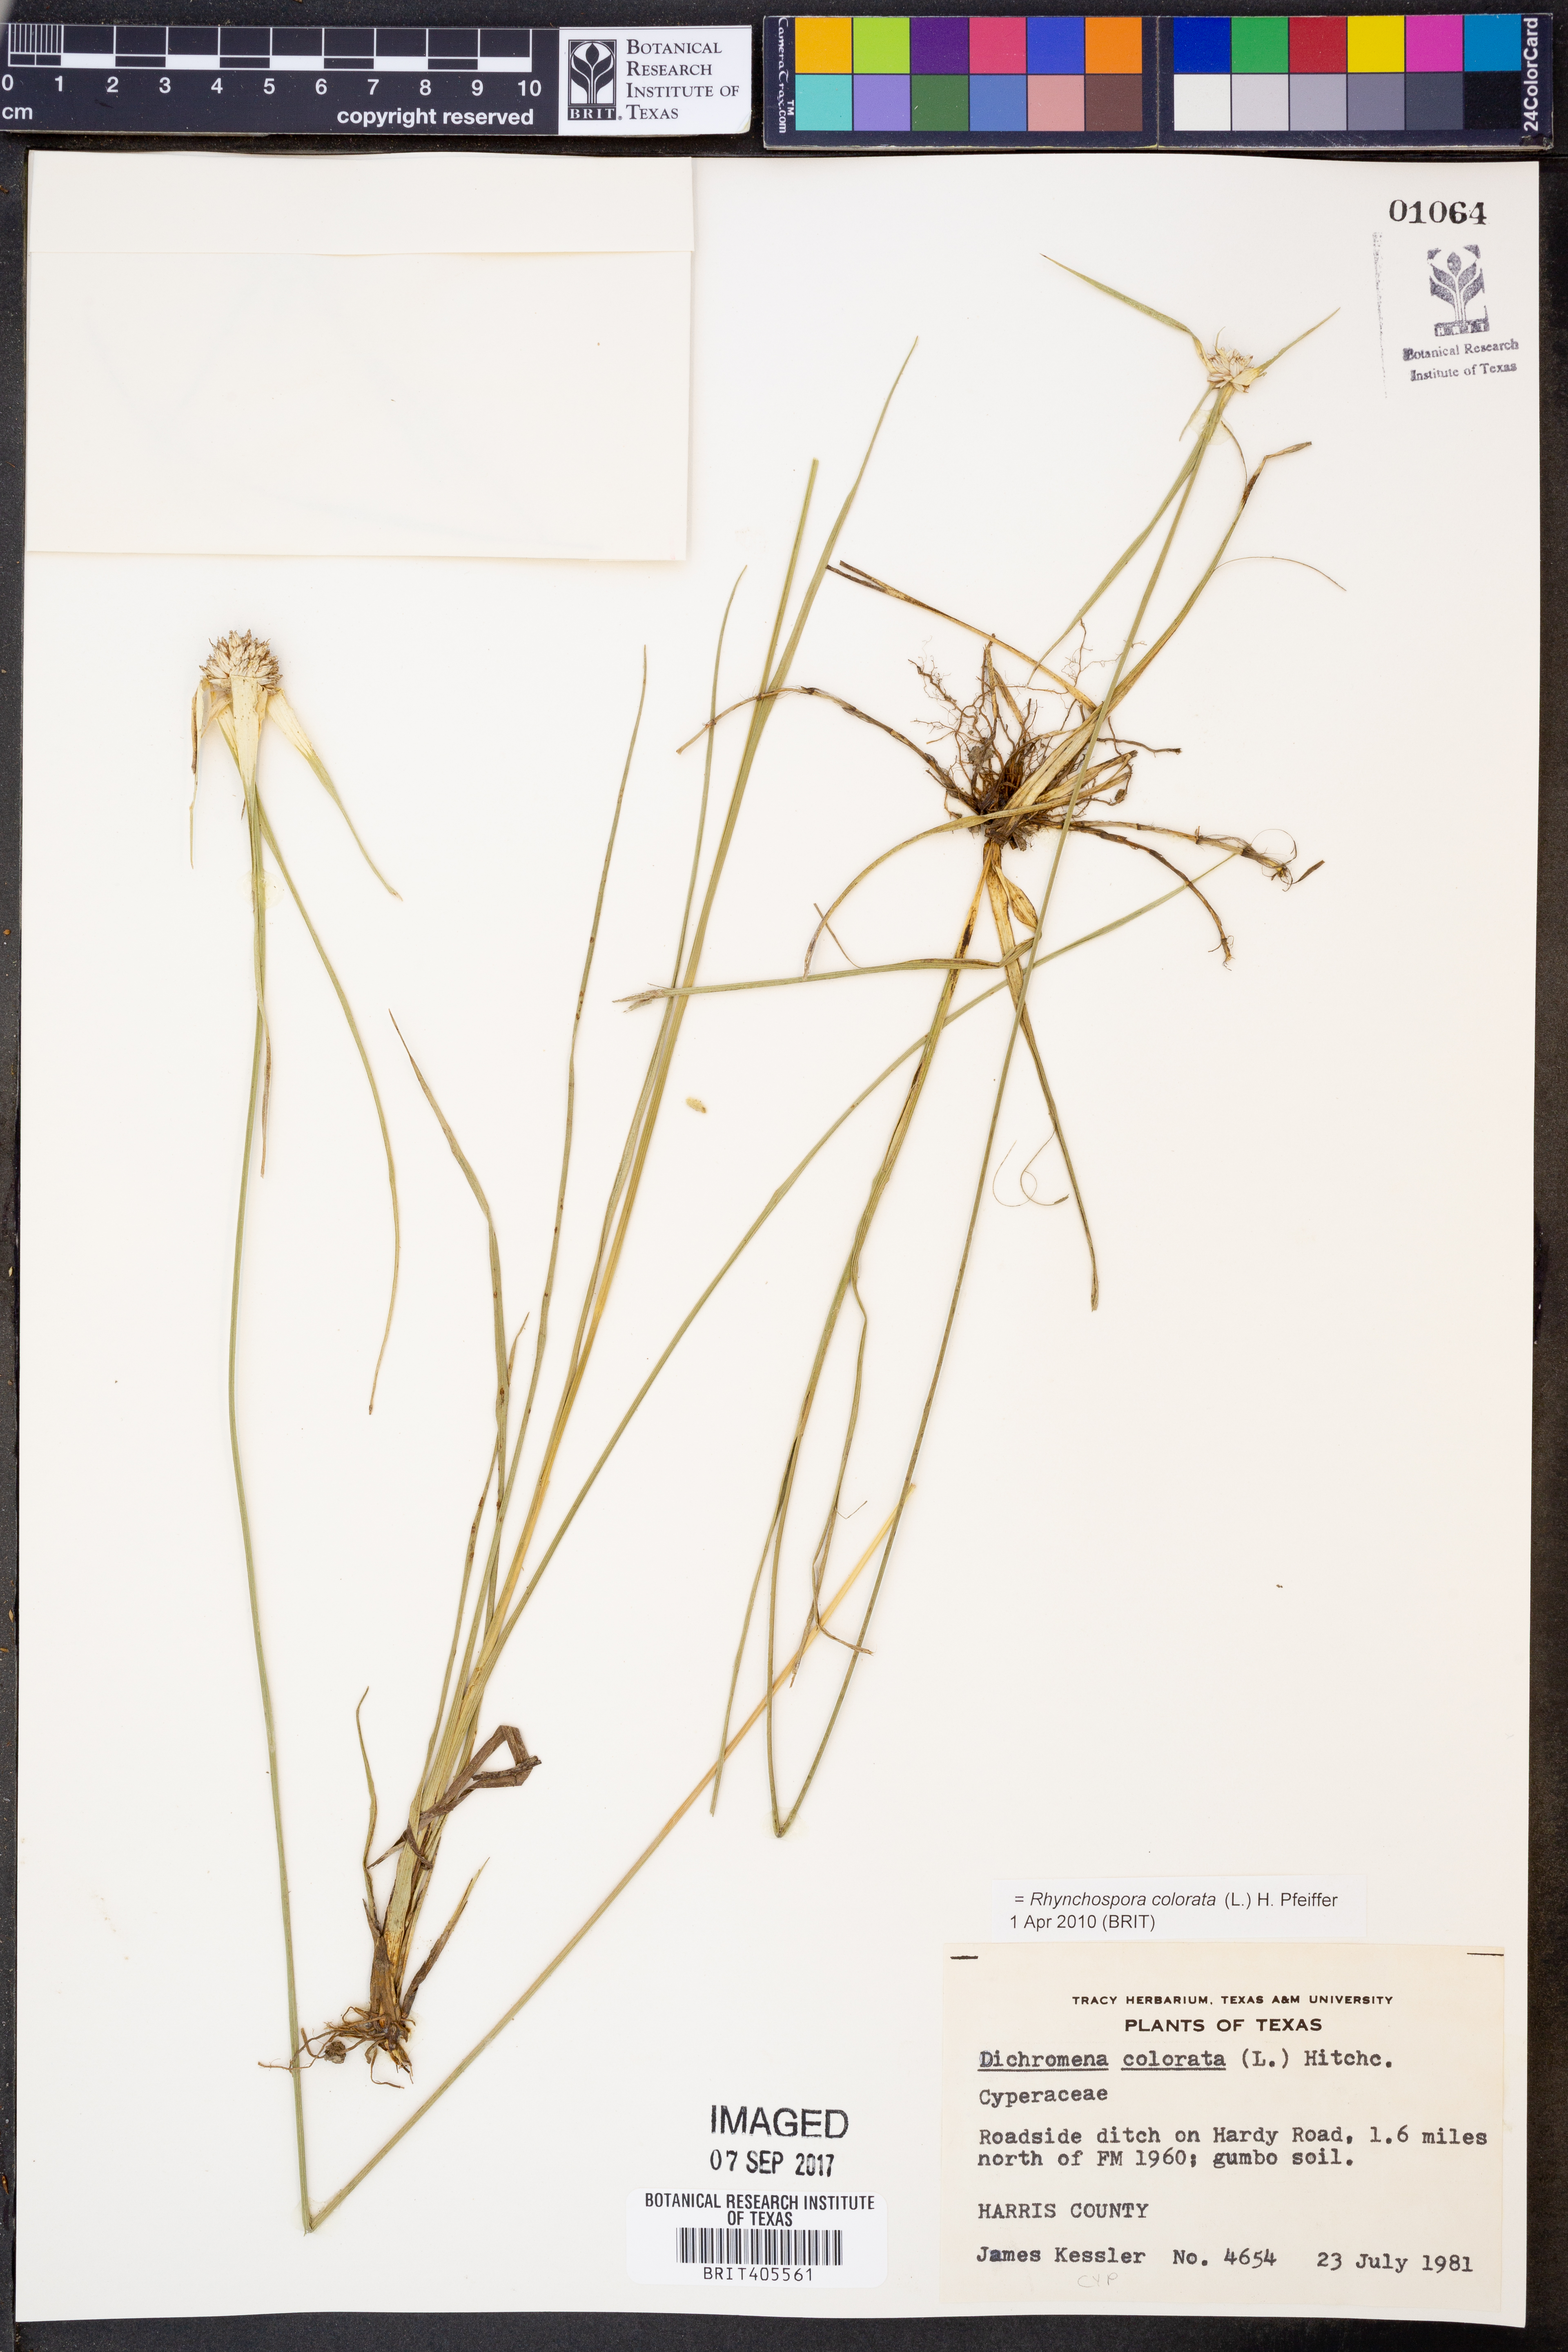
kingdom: Plantae
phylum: Tracheophyta
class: Liliopsida
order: Poales
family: Cyperaceae
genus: Rhynchospora
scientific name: Rhynchospora colorata
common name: Star sedge
